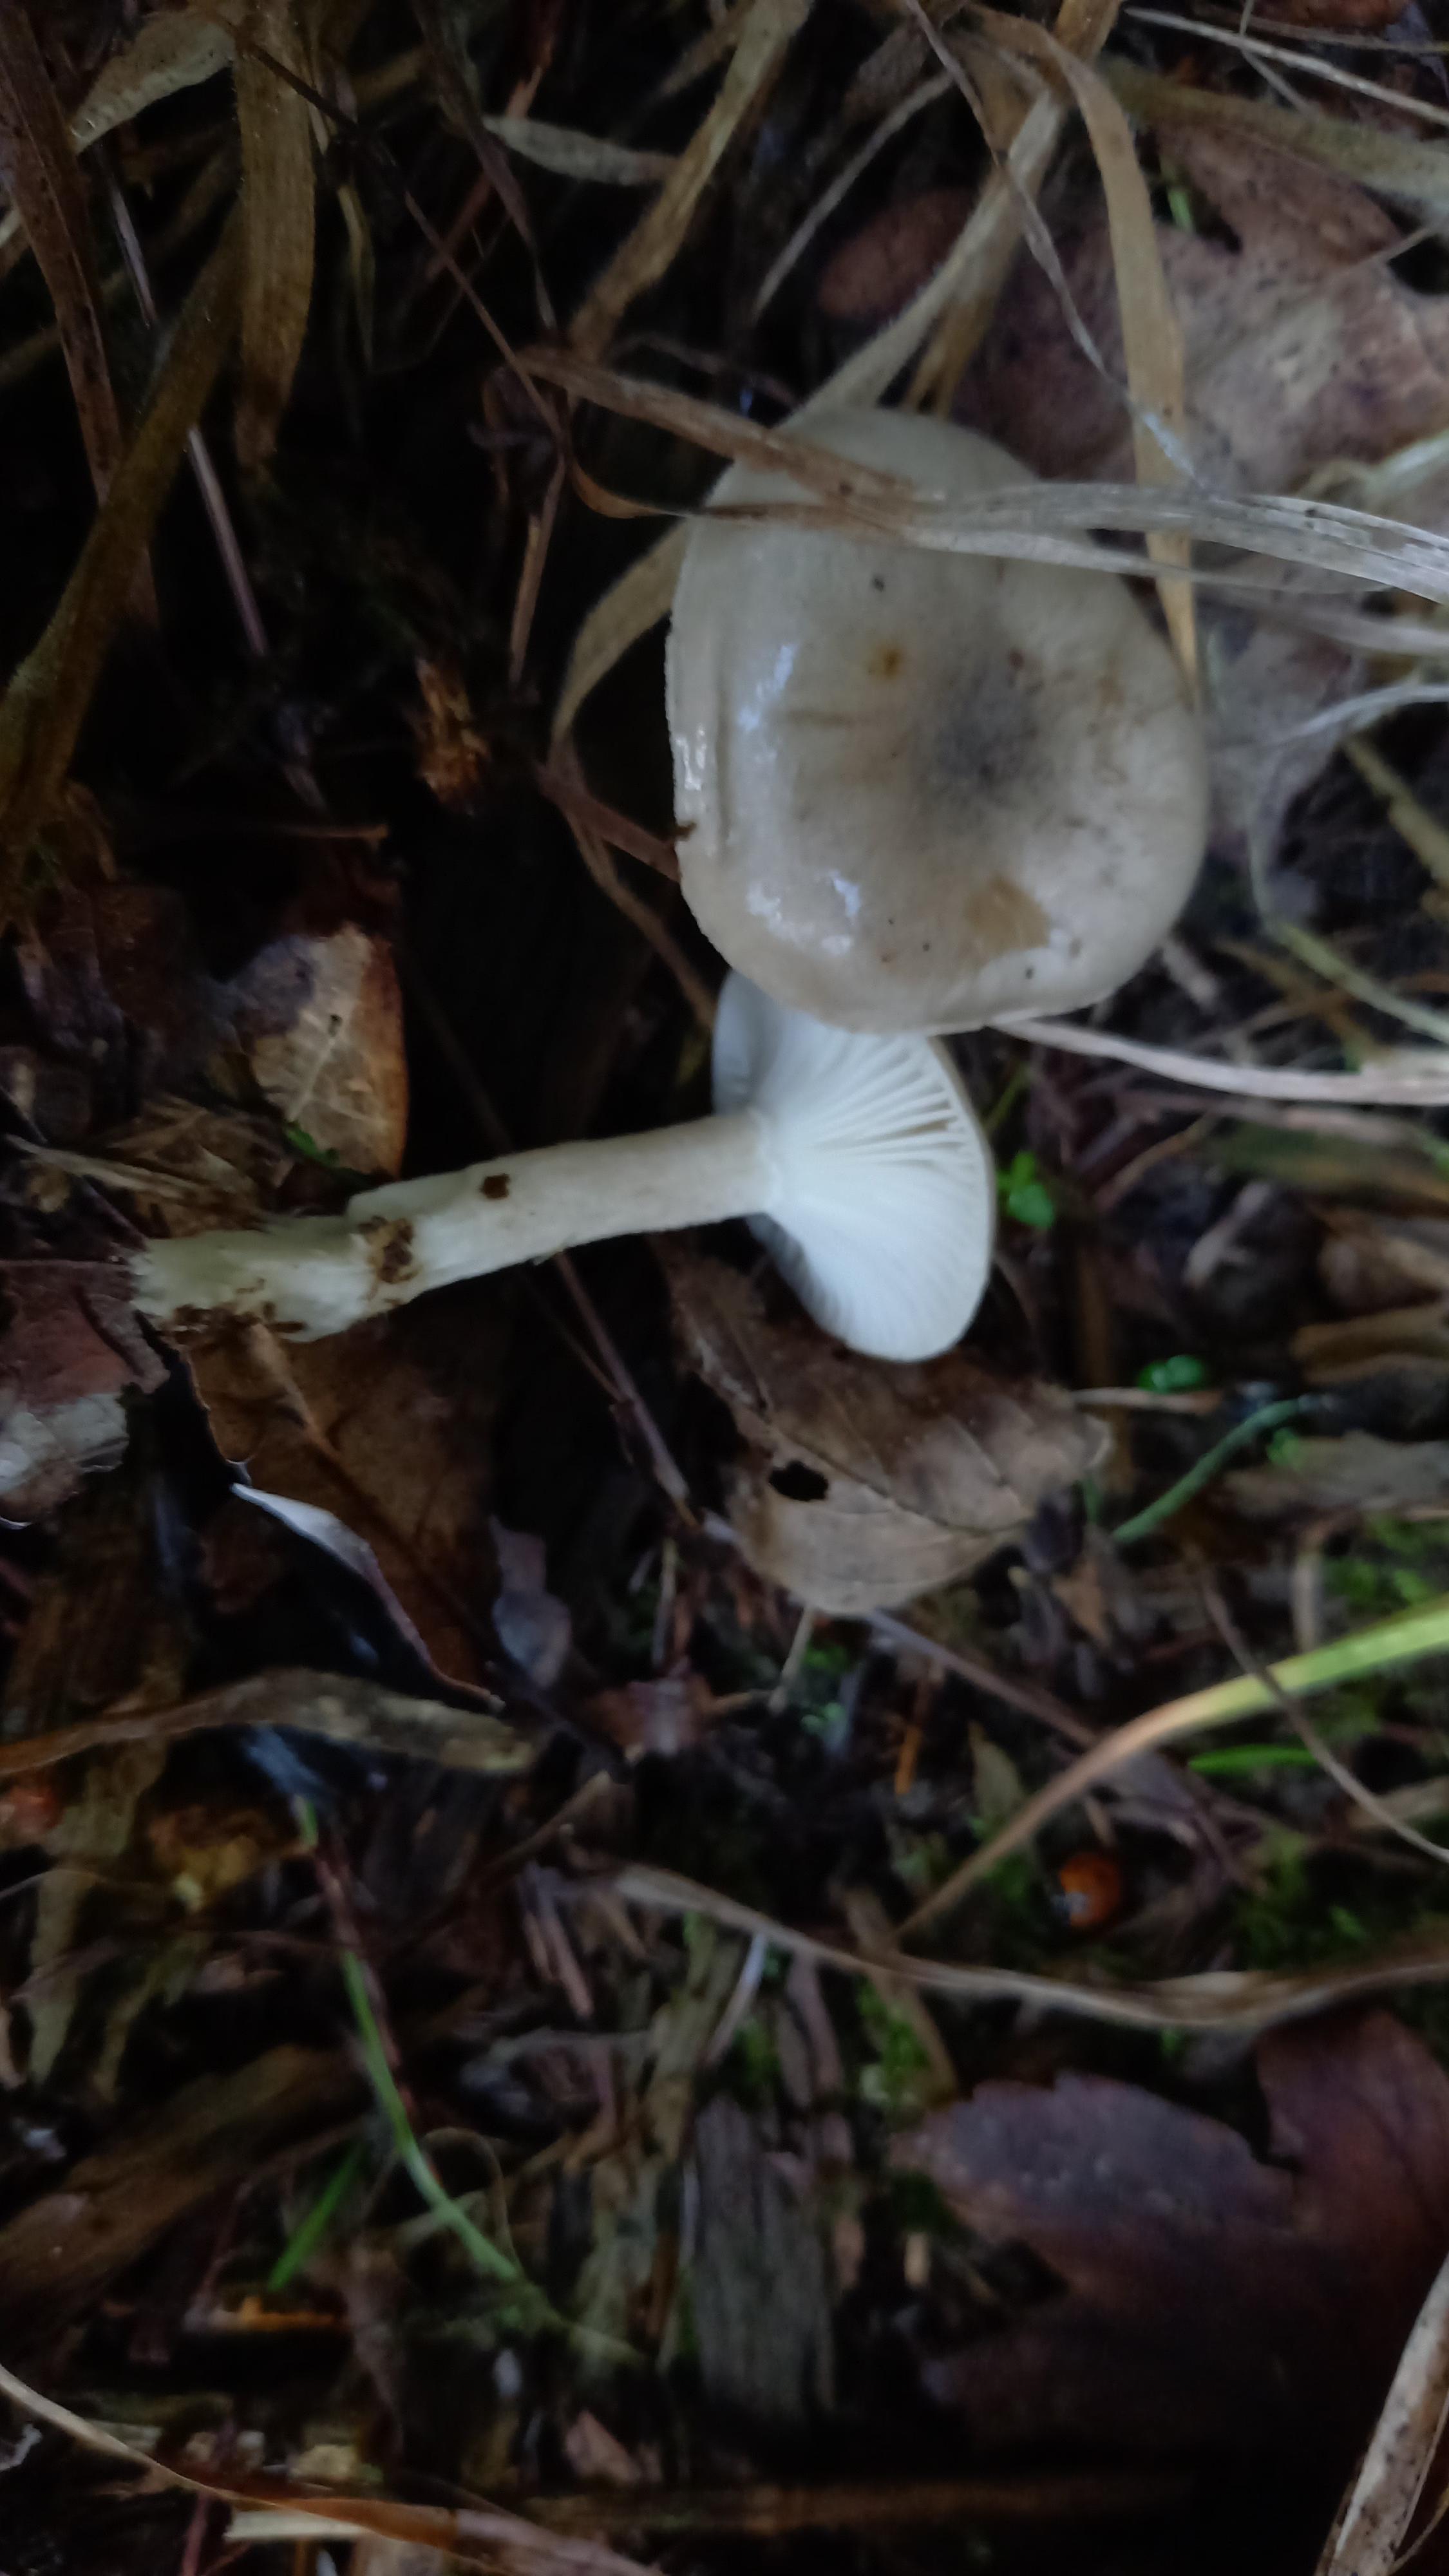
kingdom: Fungi
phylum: Basidiomycota
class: Agaricomycetes
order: Agaricales
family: Hygrophoraceae
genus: Hygrophorus
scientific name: Hygrophorus agathosmus
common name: vellugtende sneglehat
